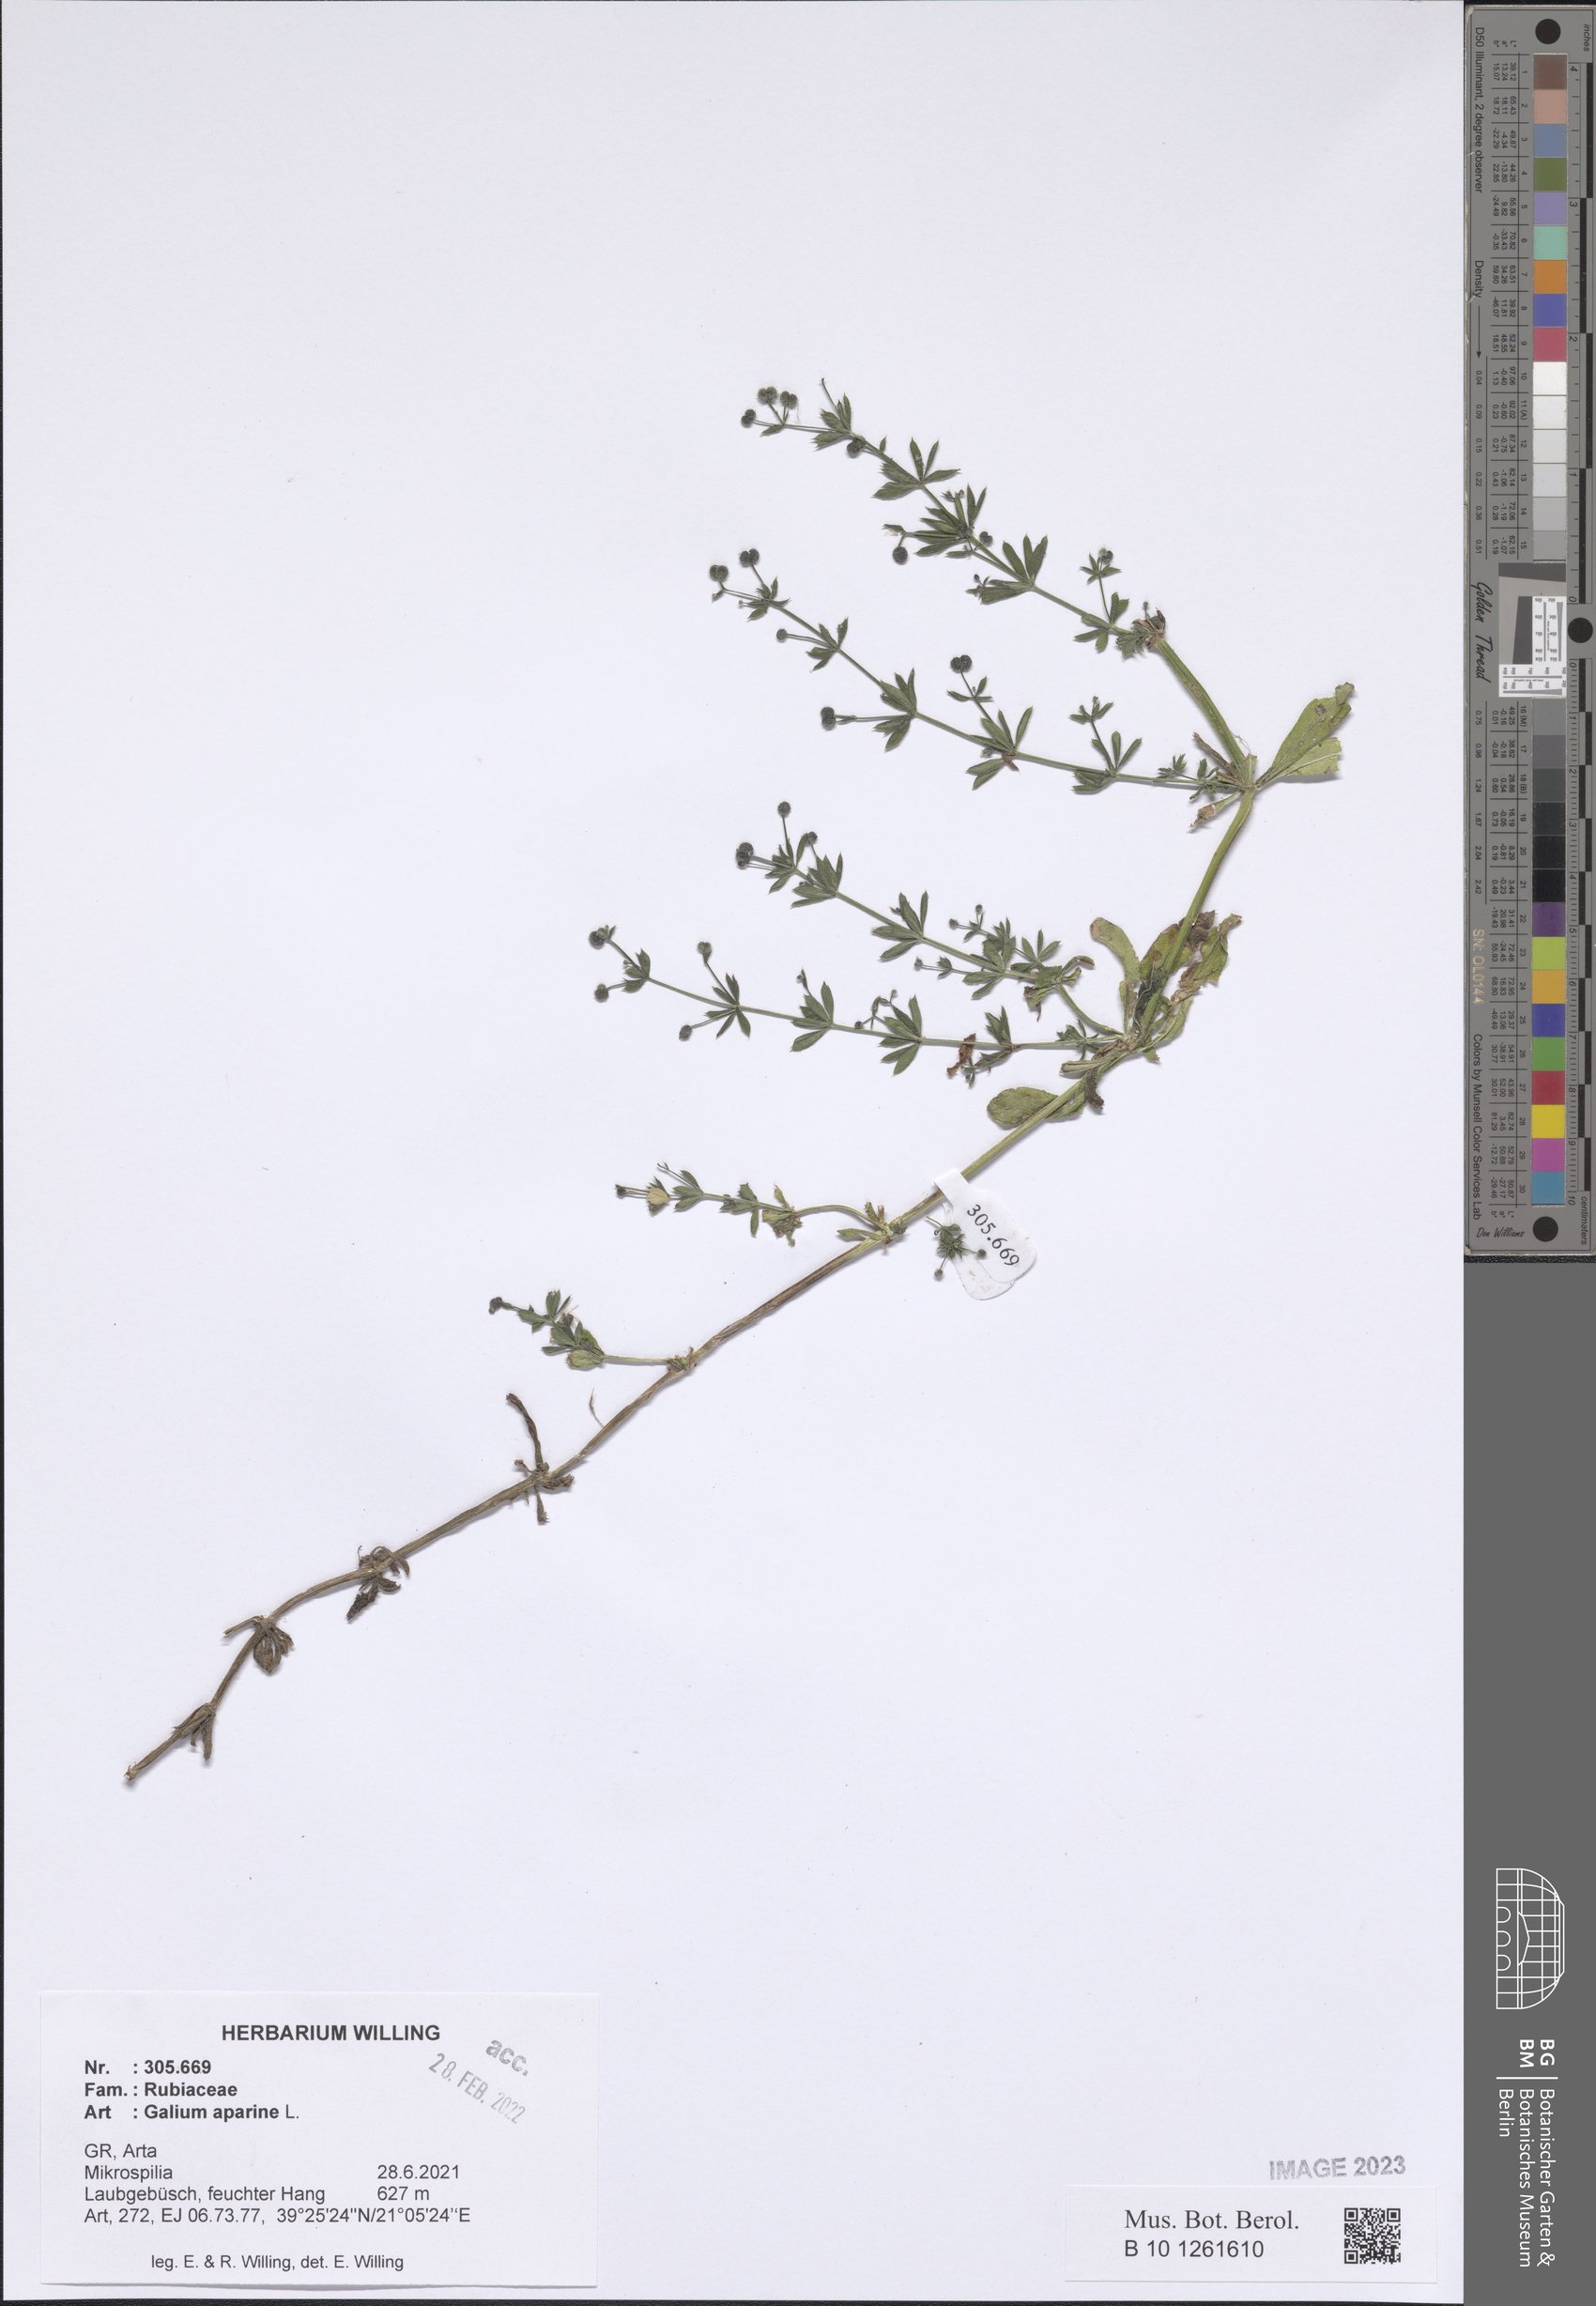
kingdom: Plantae
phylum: Tracheophyta
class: Magnoliopsida
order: Gentianales
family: Rubiaceae
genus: Galium
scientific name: Galium aparine
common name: Cleavers
